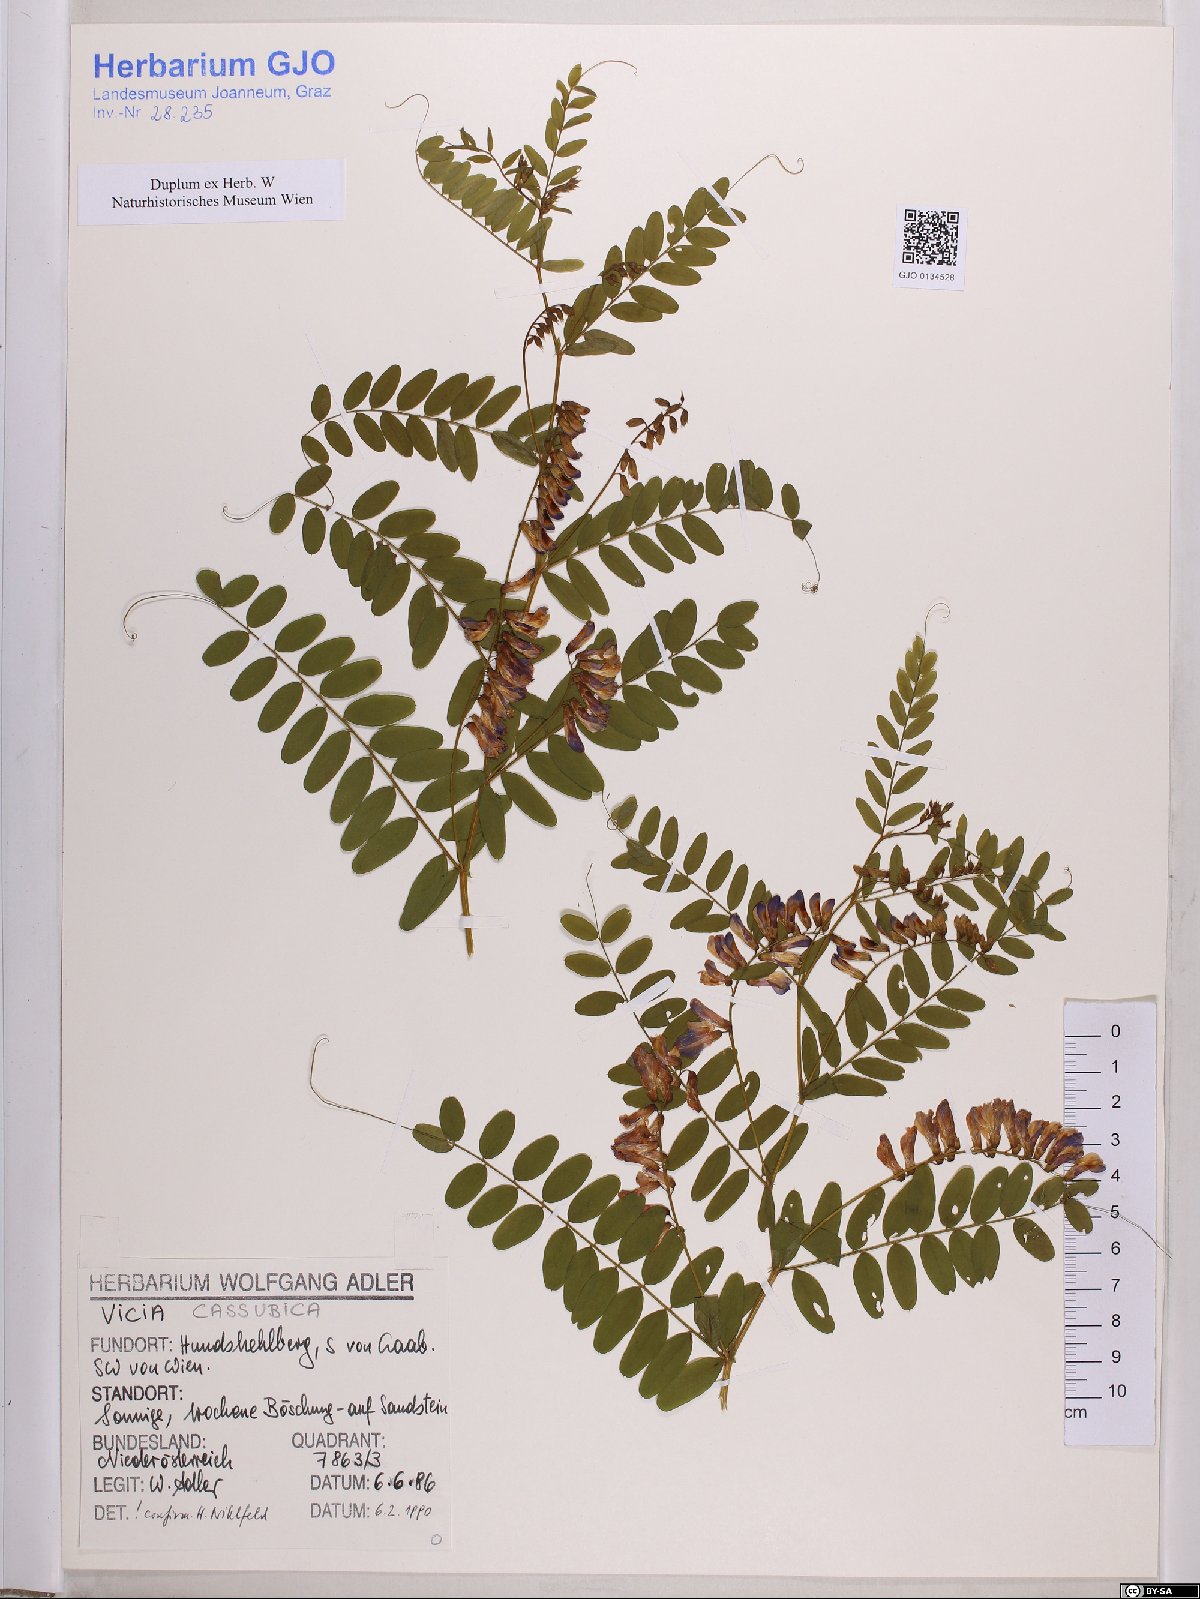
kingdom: Plantae
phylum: Tracheophyta
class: Magnoliopsida
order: Fabales
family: Fabaceae
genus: Vicia
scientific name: Vicia cassubica
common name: Danzig vetch
